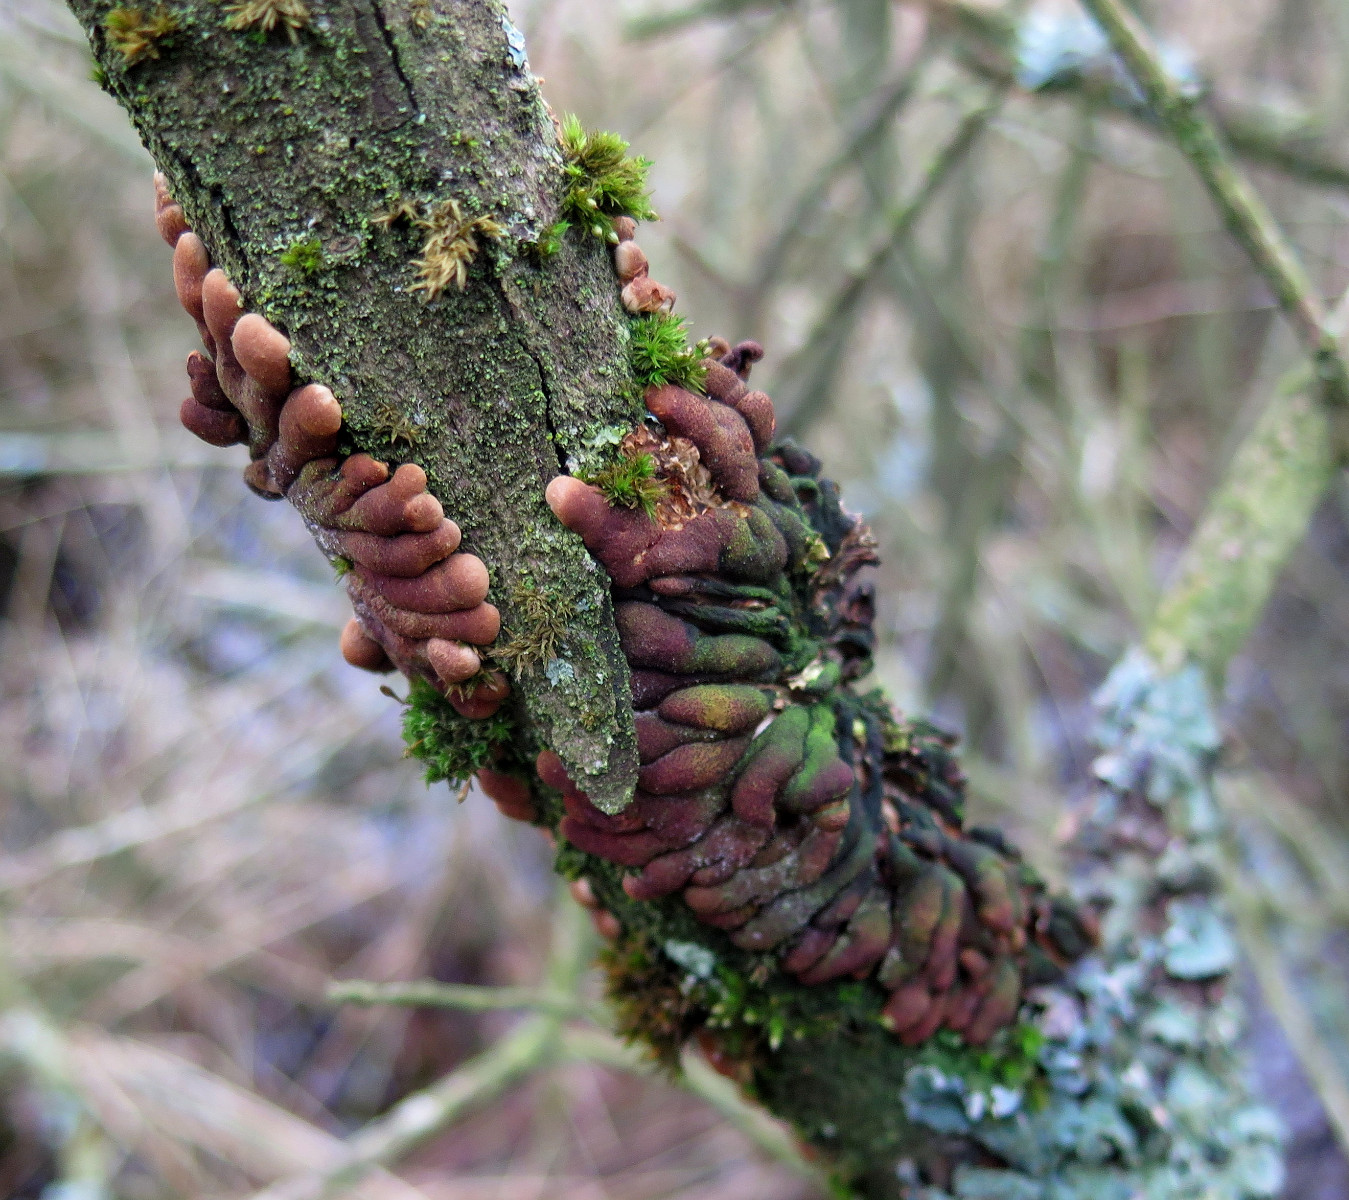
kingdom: Fungi
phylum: Ascomycota
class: Sordariomycetes
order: Hypocreales
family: Hypocreaceae
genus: Hypocreopsis
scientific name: Hypocreopsis lichenoides
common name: pilfinger
